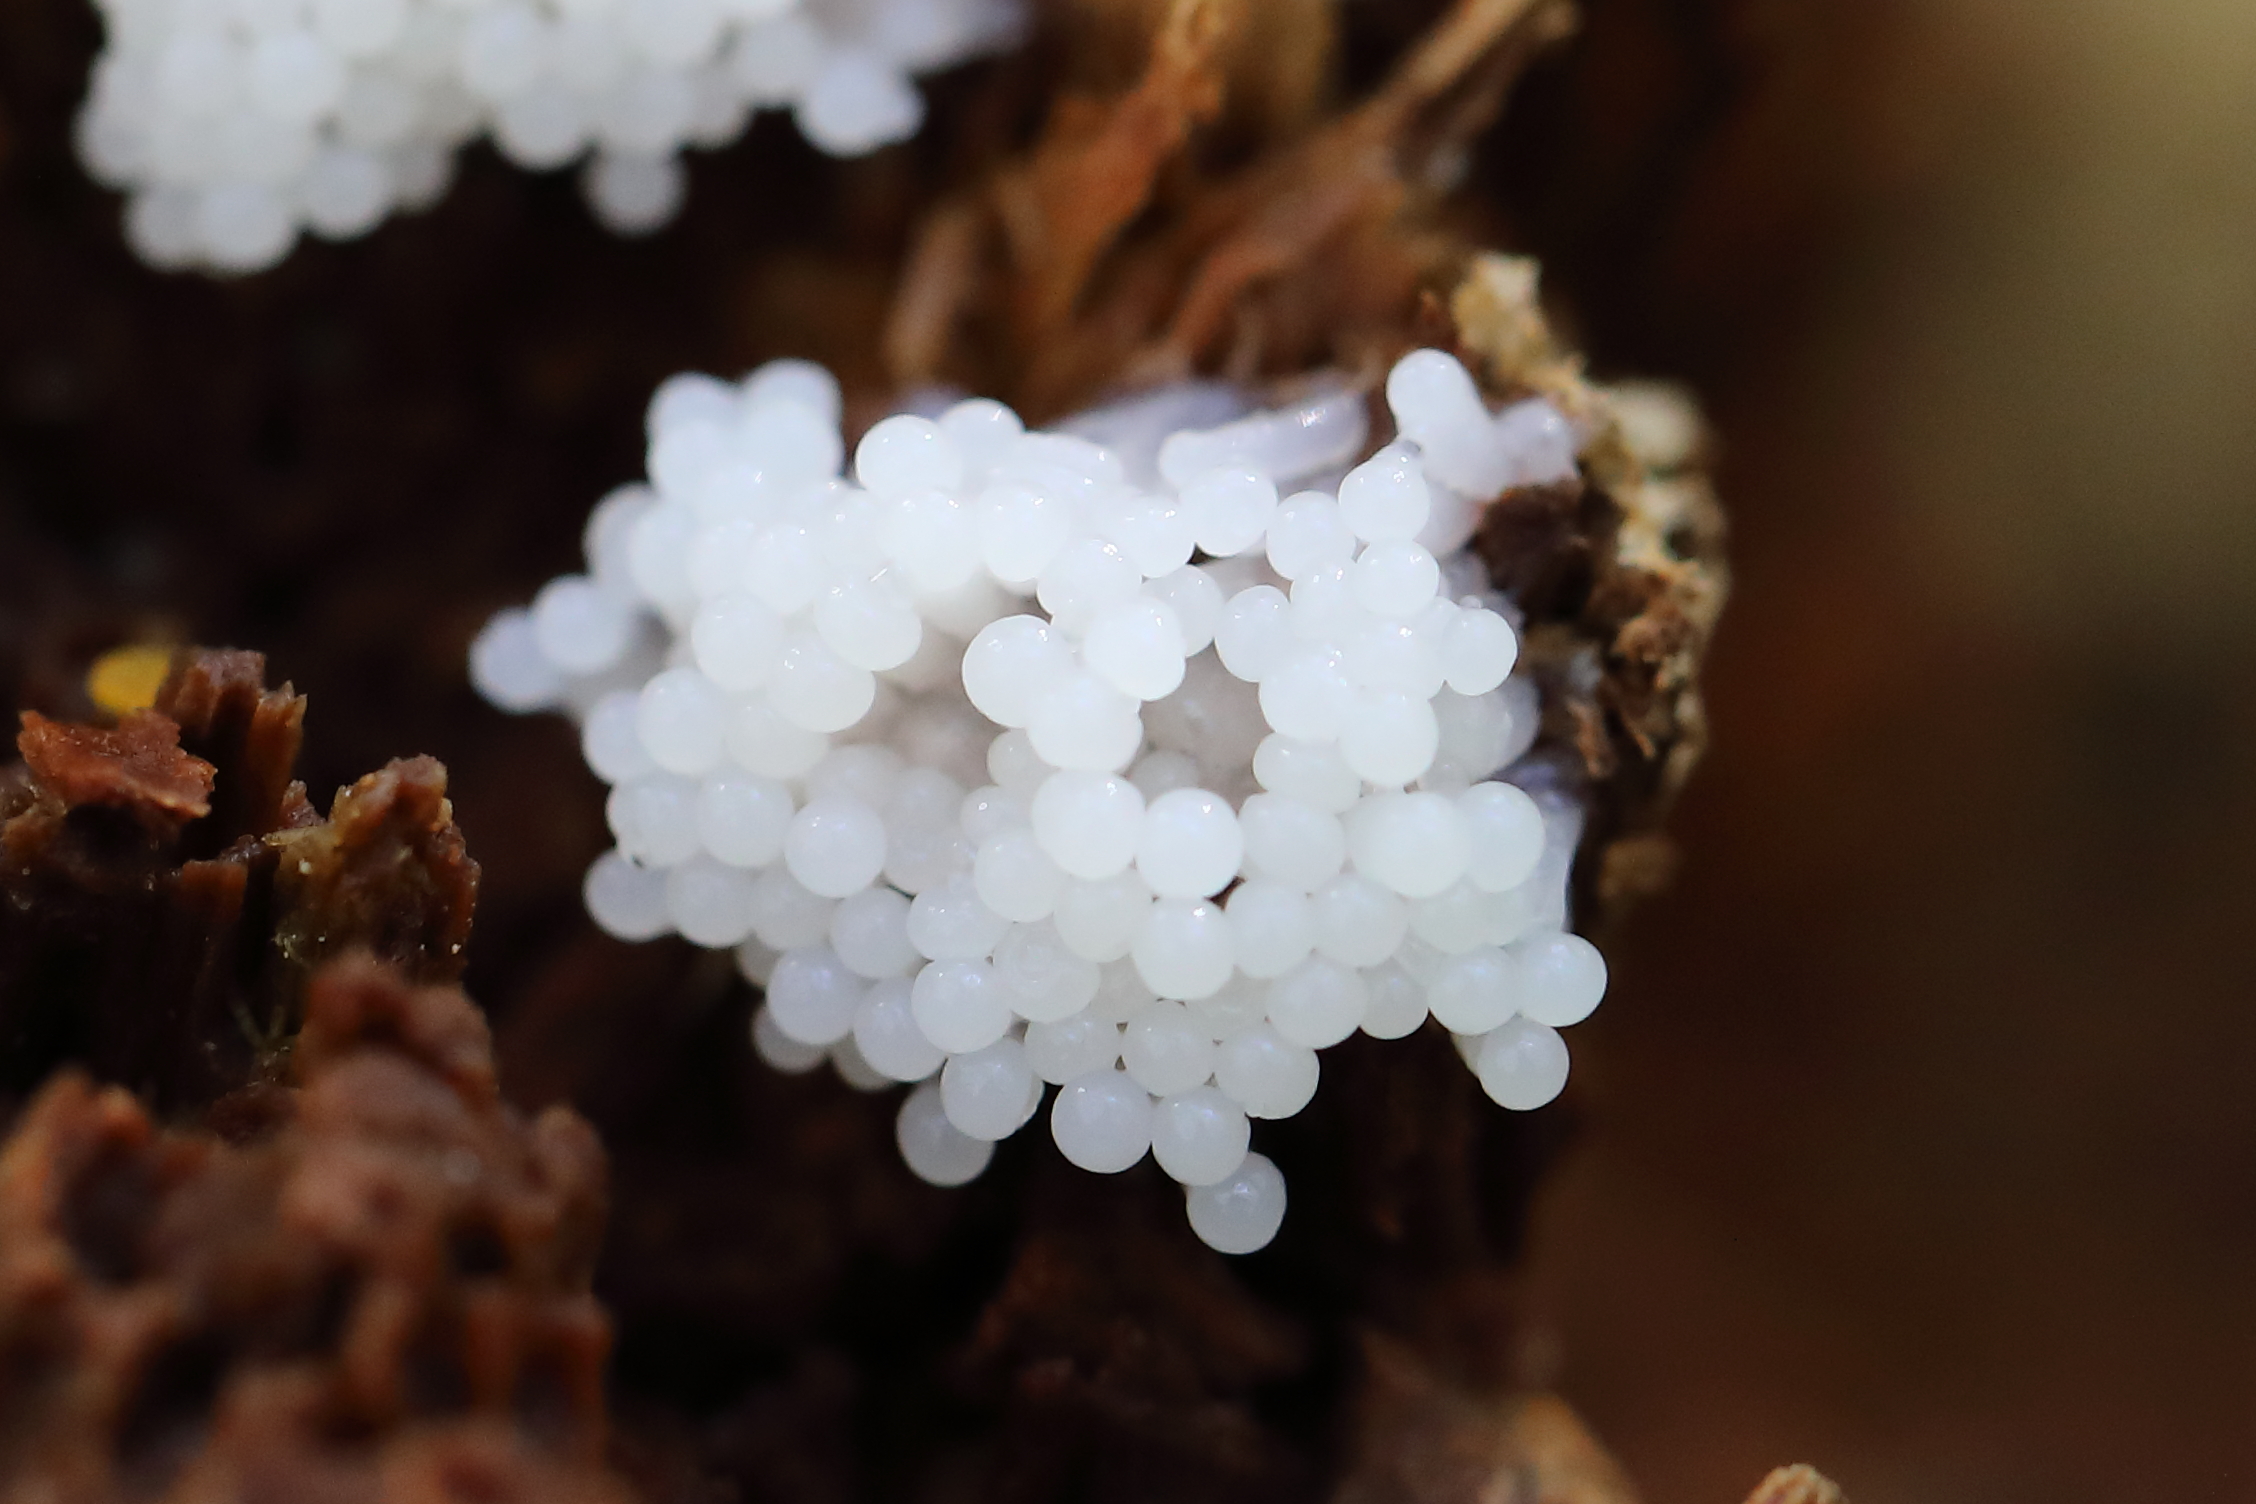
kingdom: Protozoa
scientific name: Protozoa
